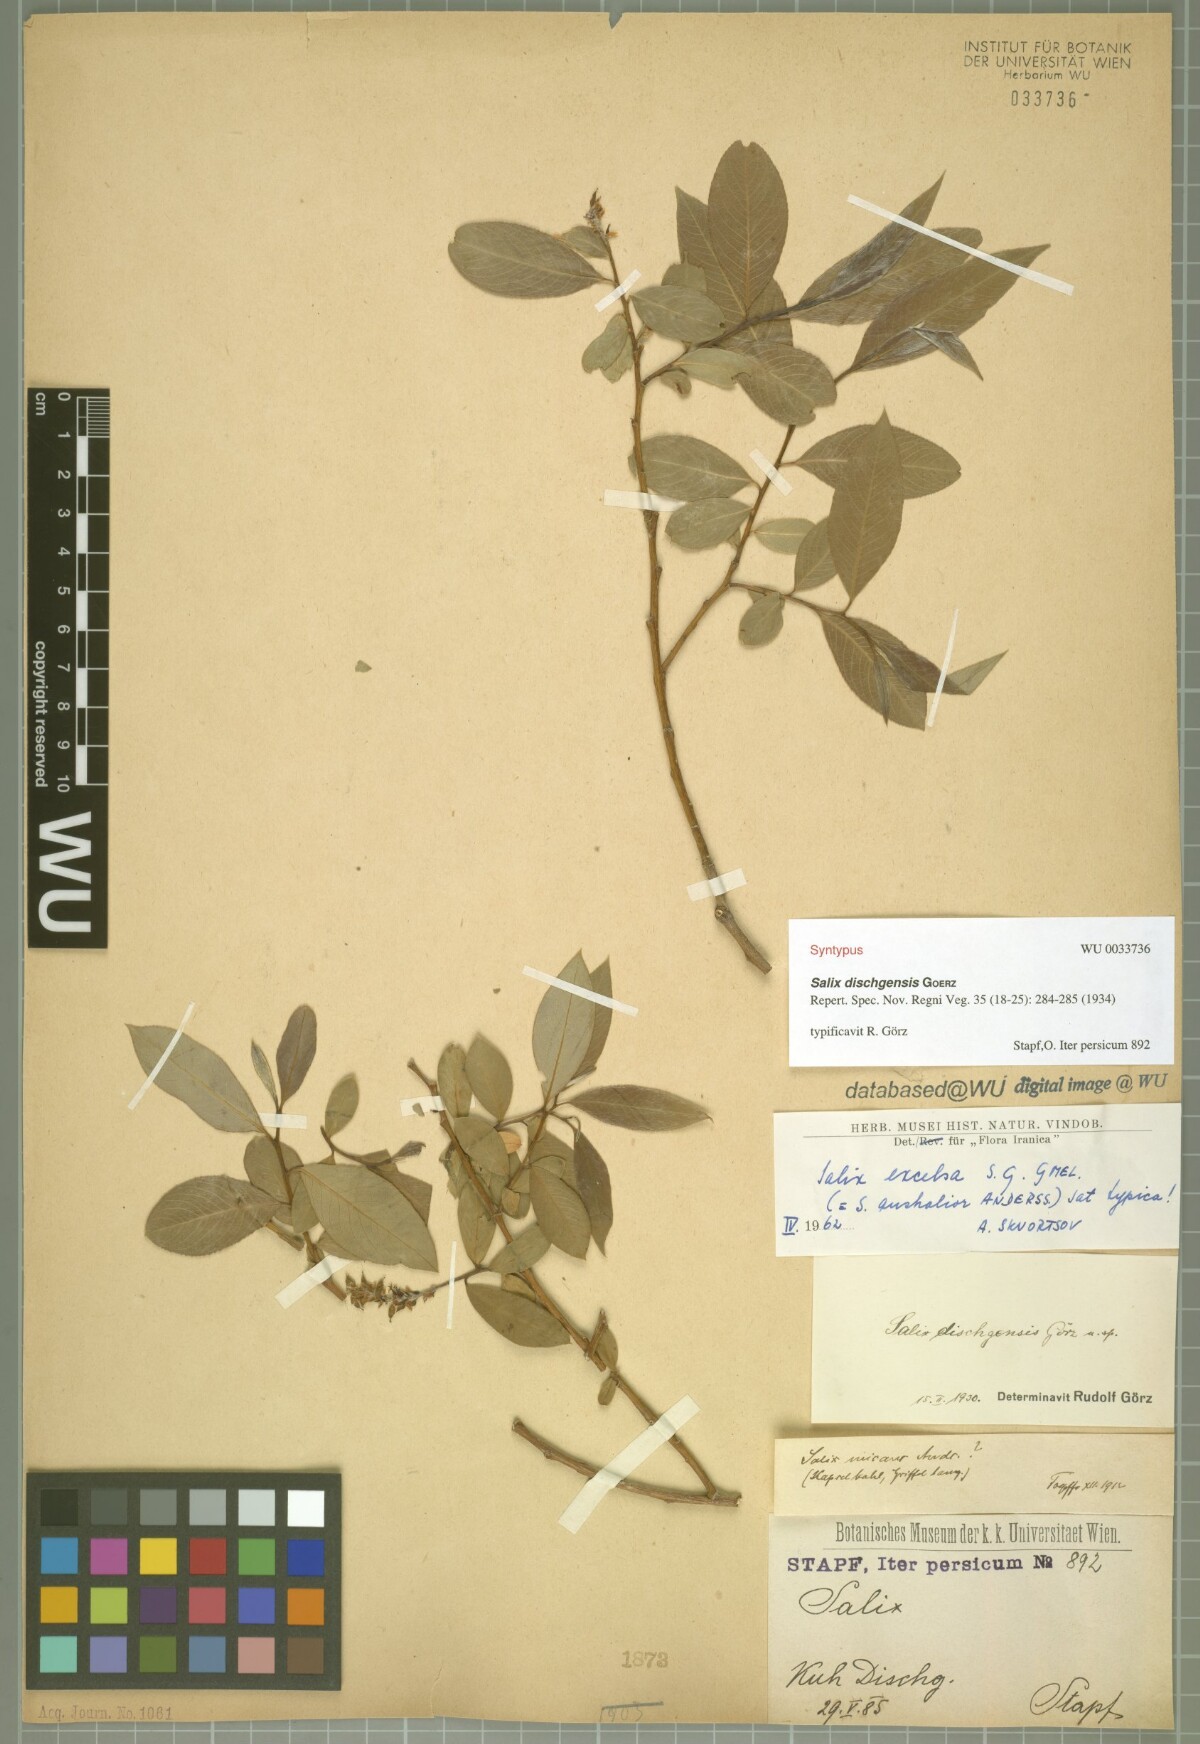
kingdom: Plantae
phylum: Tracheophyta
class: Magnoliopsida
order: Malpighiales
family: Salicaceae
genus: Salix
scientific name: Salix excelsa
